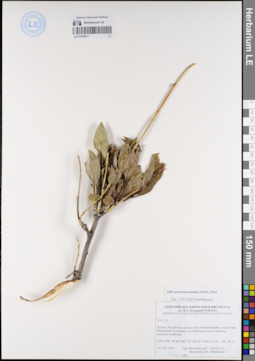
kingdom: Plantae
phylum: Tracheophyta
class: Magnoliopsida
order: Malpighiales
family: Salicaceae
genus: Salix
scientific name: Salix pseudopentandra
